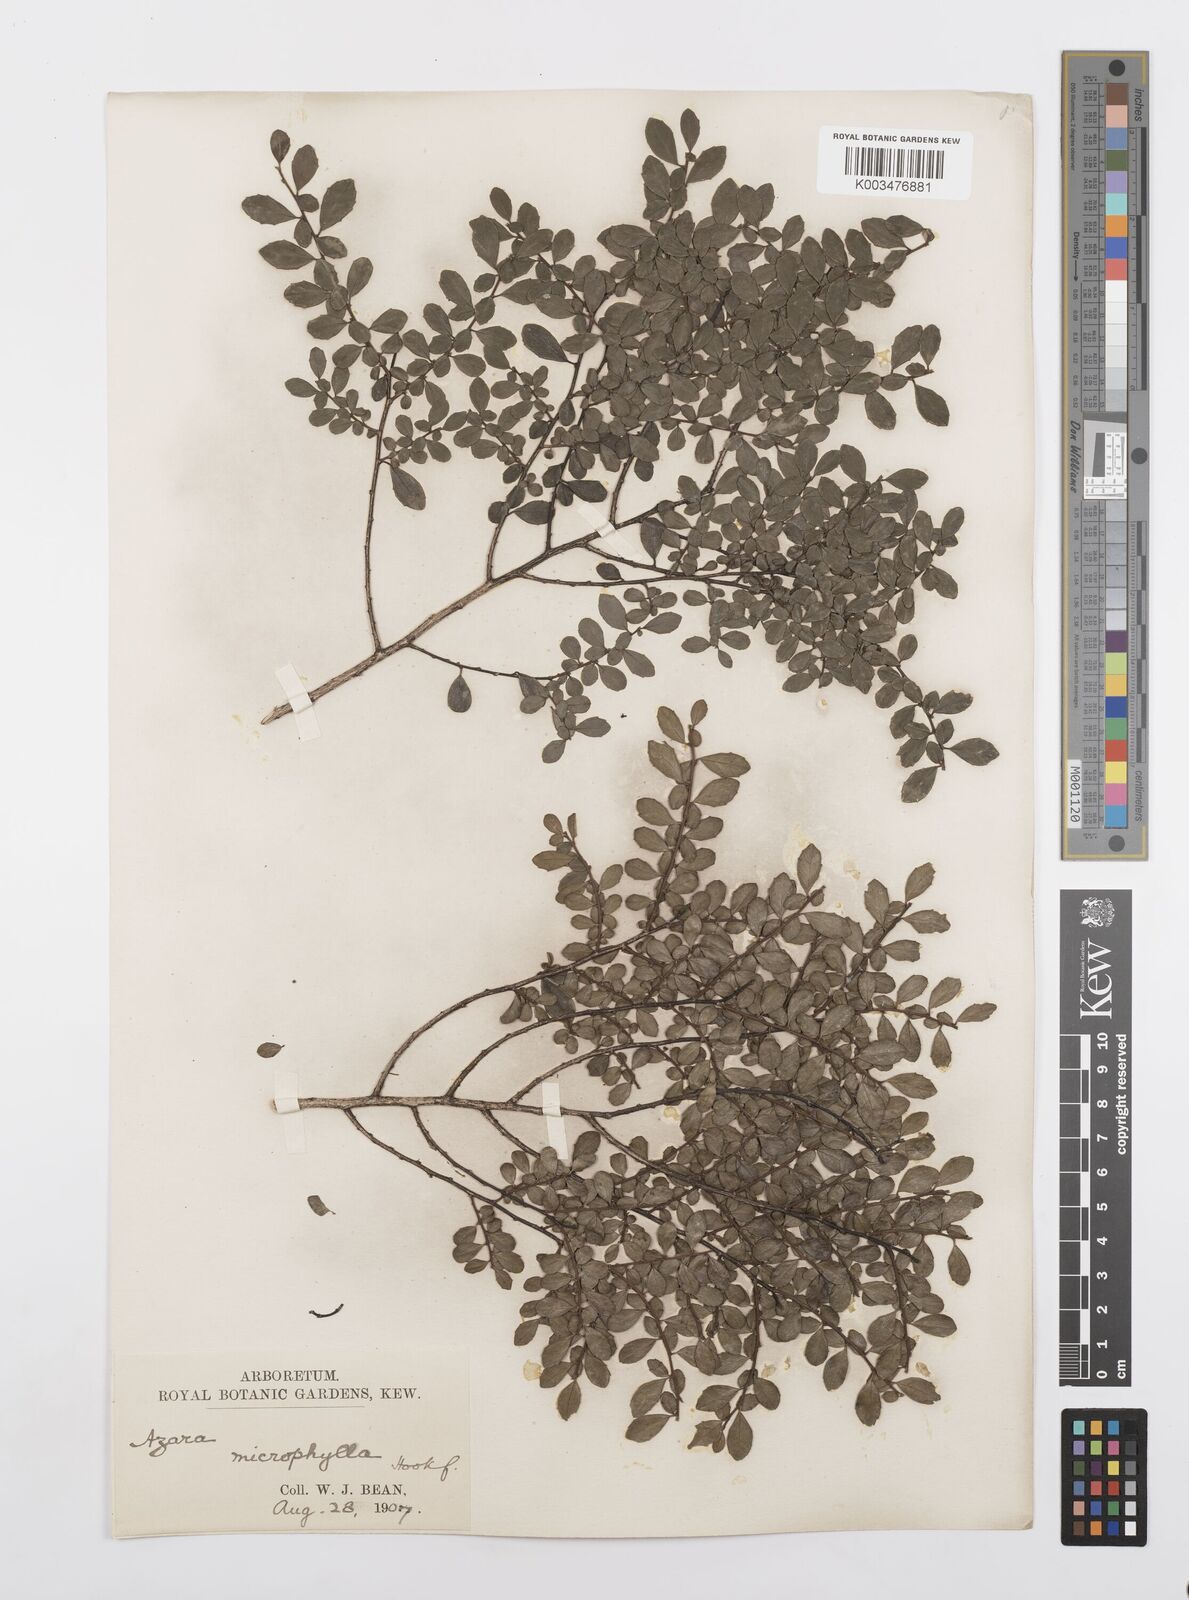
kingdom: Plantae
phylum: Tracheophyta
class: Magnoliopsida
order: Malpighiales
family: Salicaceae
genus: Azara
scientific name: Azara microphylla
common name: Box-leaf azara
